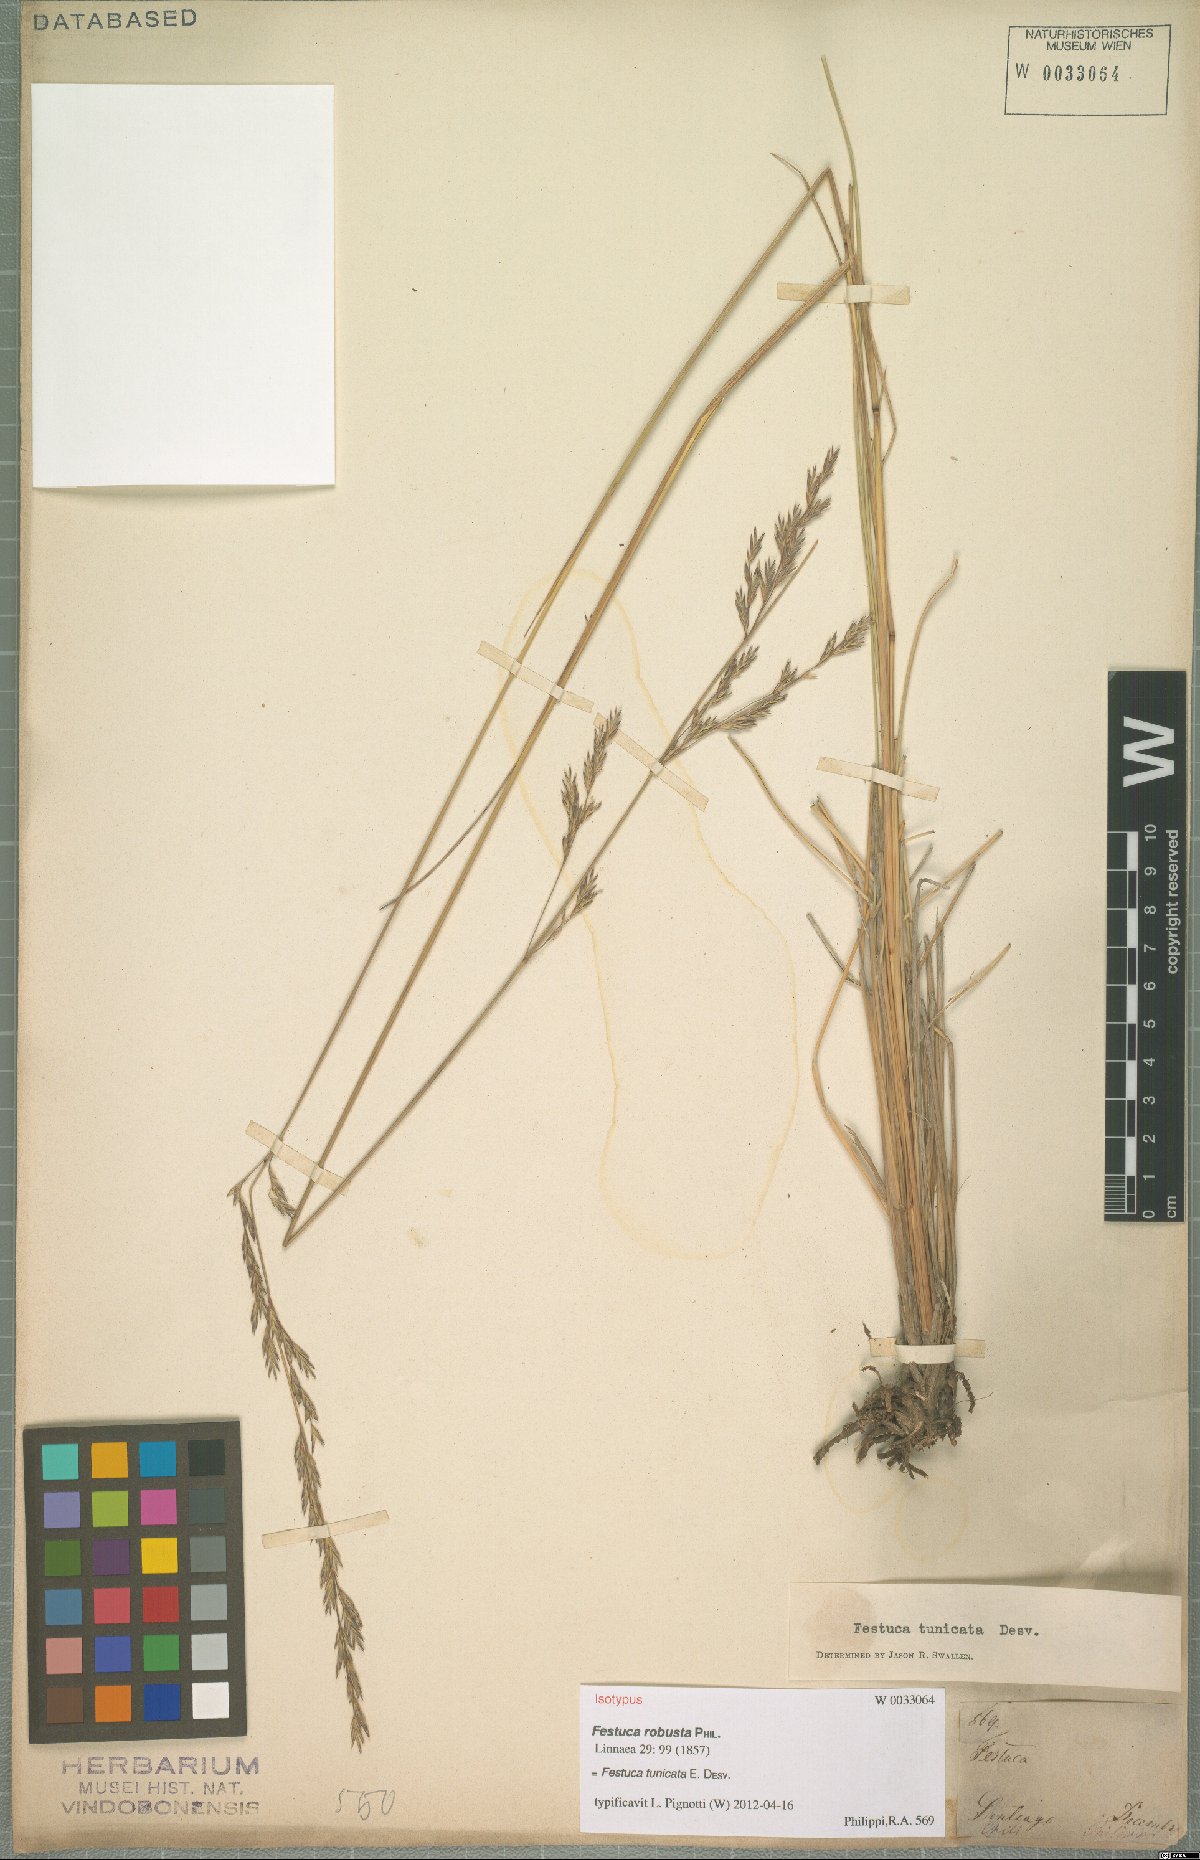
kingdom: Plantae
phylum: Tracheophyta
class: Liliopsida
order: Poales
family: Poaceae
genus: Festuca
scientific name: Festuca acanthophylla
